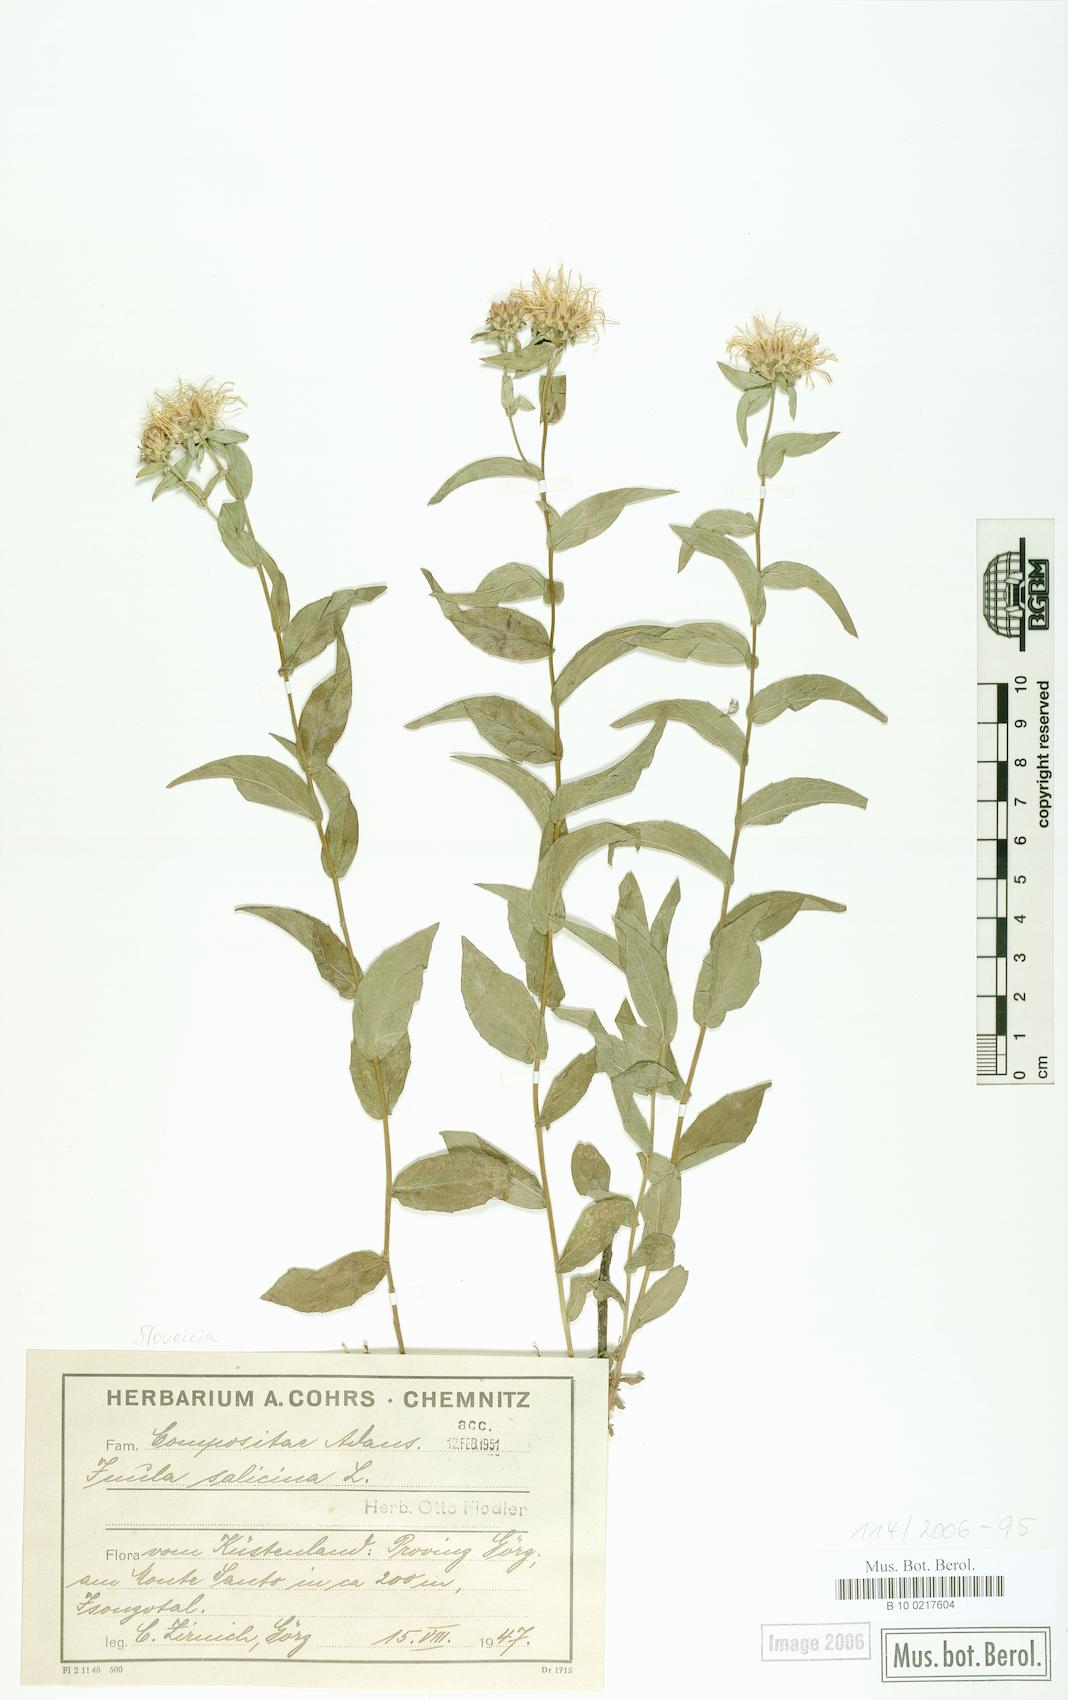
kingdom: Plantae
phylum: Tracheophyta
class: Magnoliopsida
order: Asterales
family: Asteraceae
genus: Pentanema
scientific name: Pentanema salicinum
